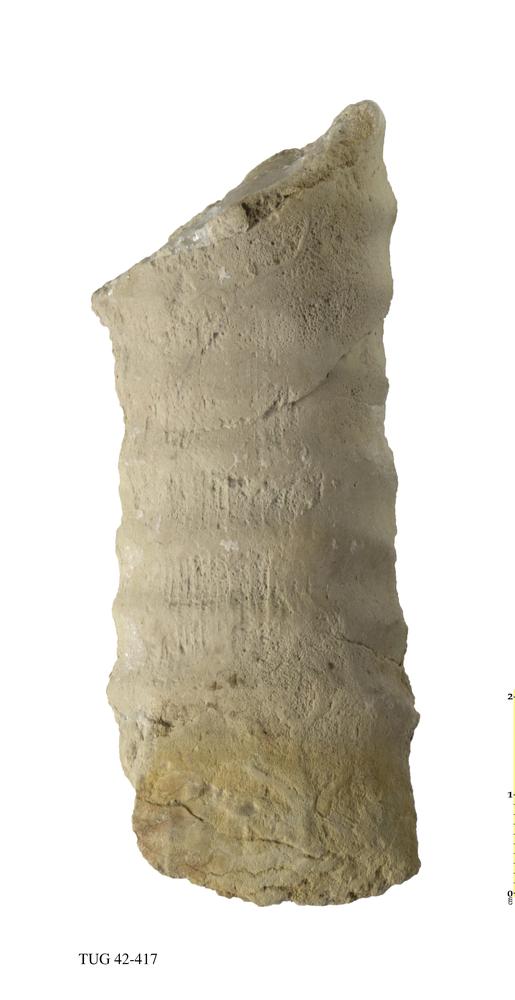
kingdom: Animalia
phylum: Mollusca
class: Cephalopoda
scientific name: Cephalopoda
